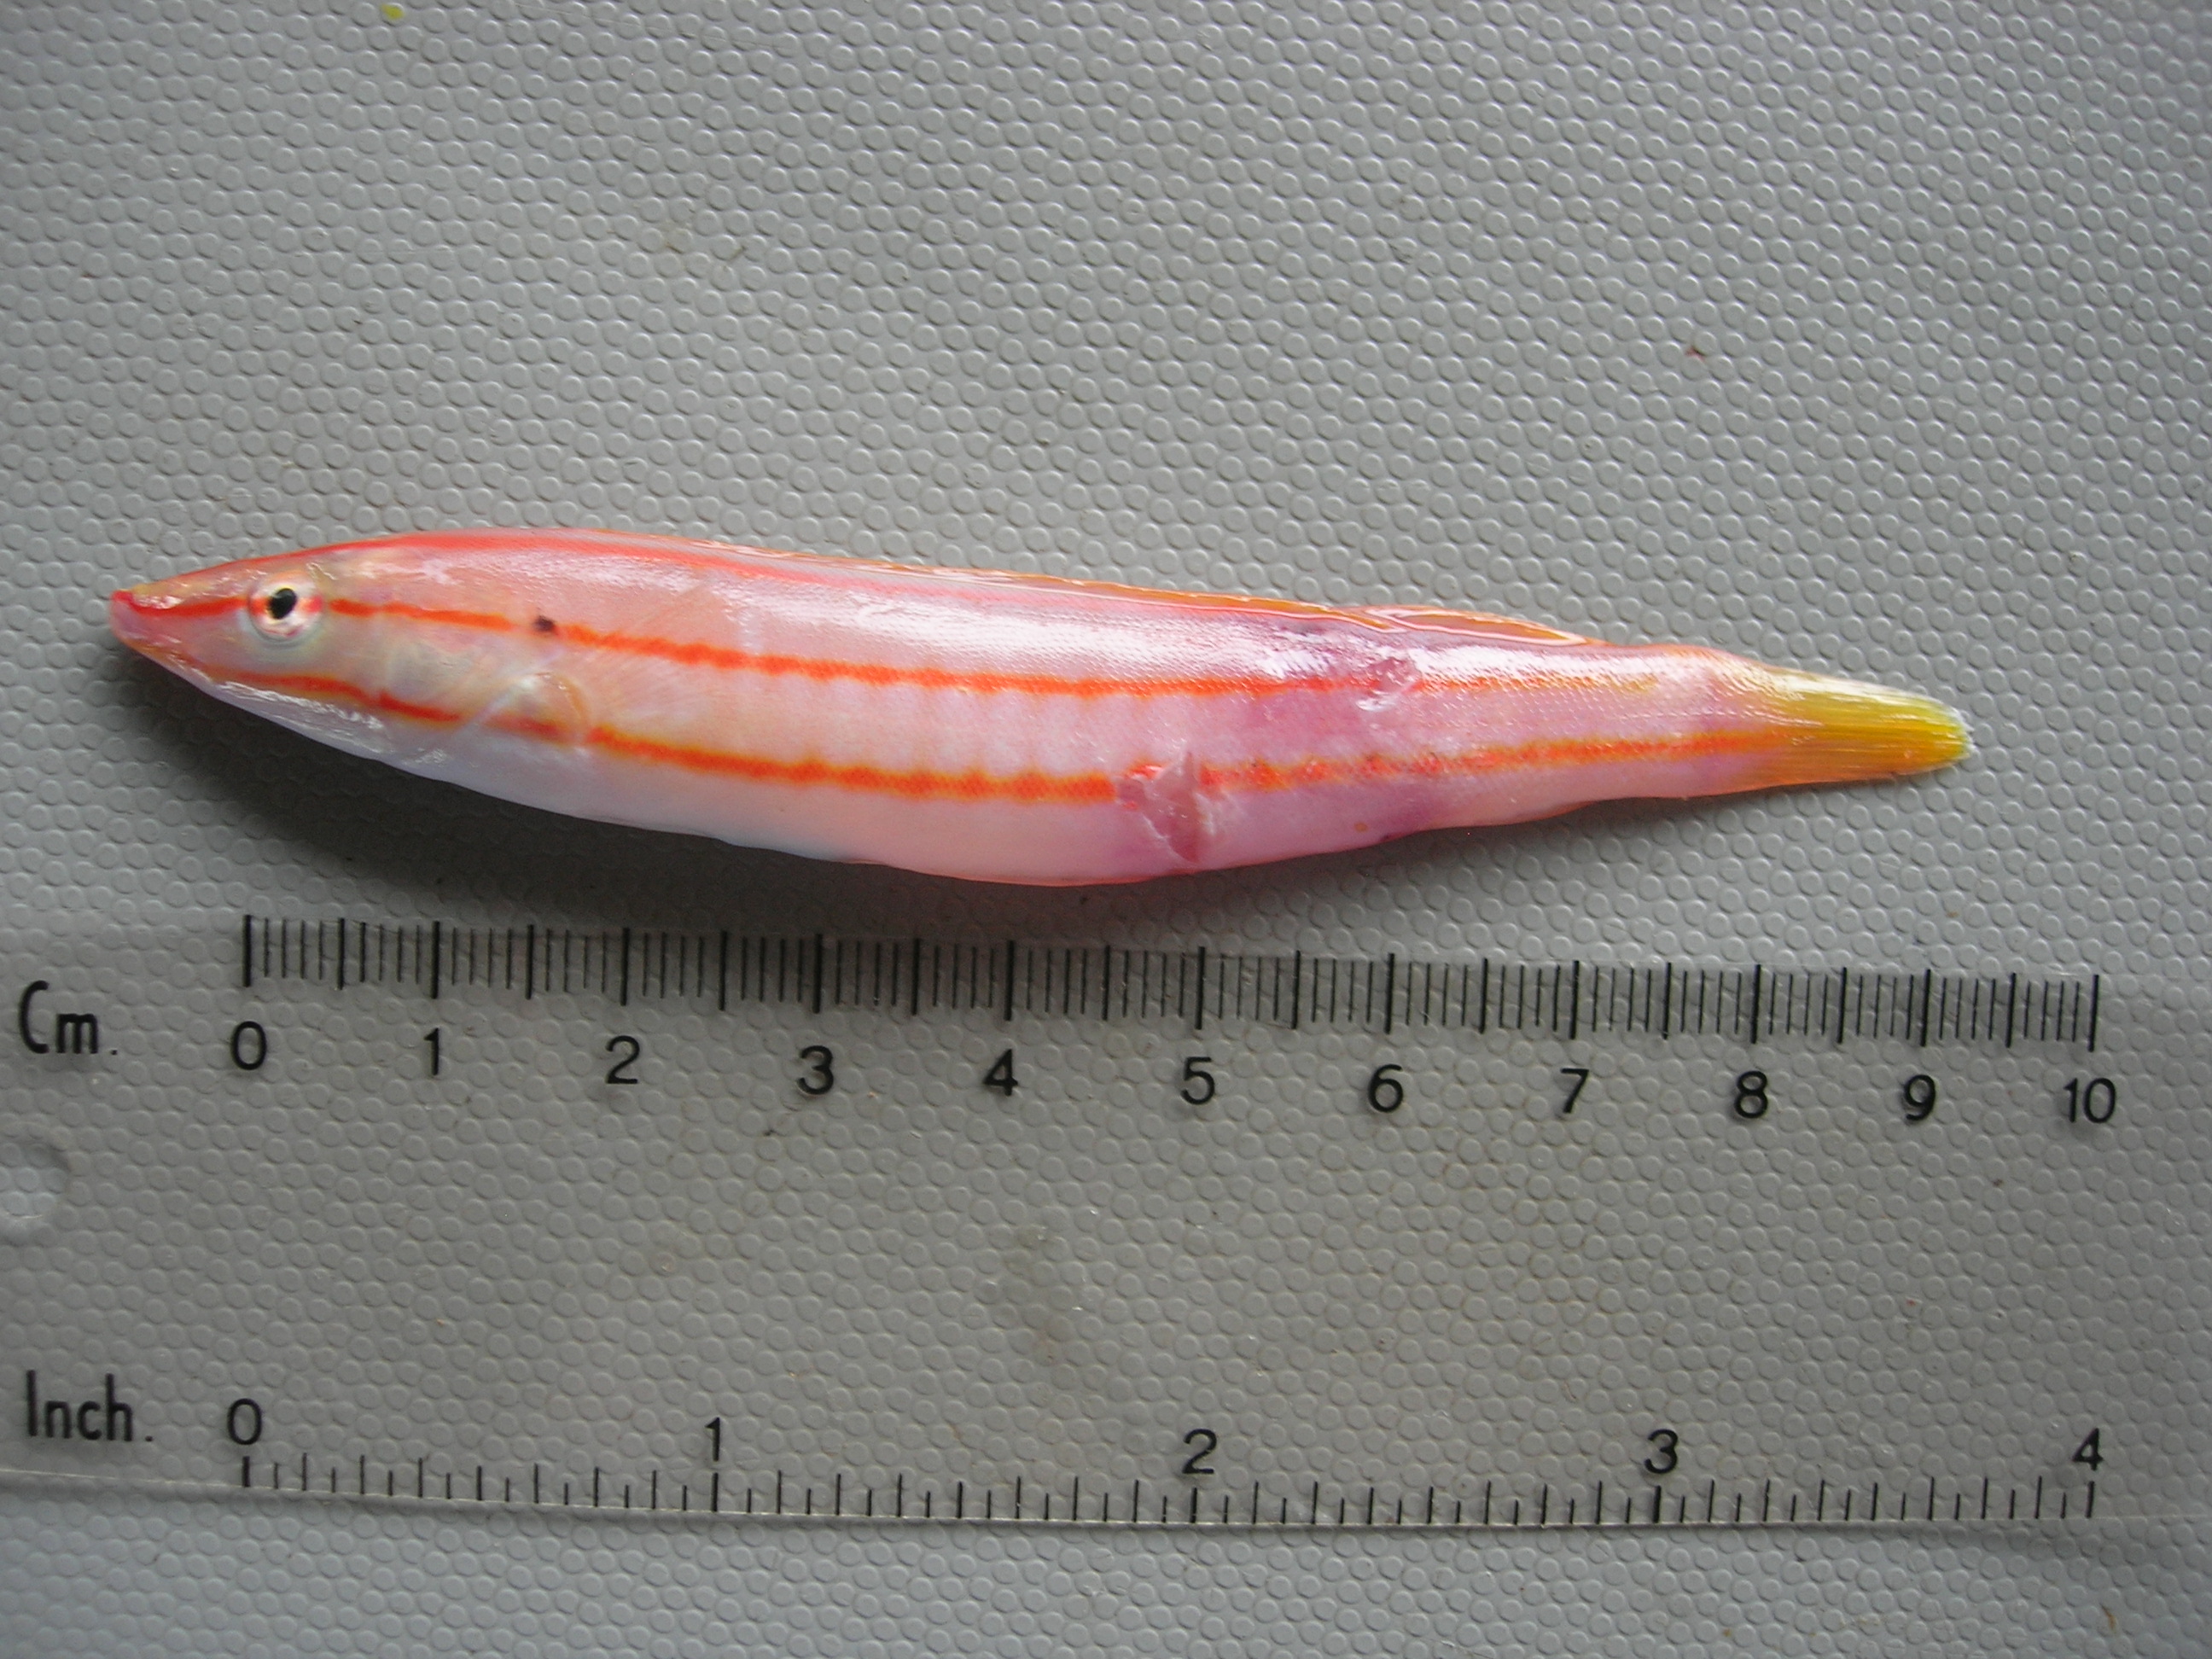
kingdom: Animalia
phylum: Chordata
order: Perciformes
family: Labridae
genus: Hologymnosus
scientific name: Hologymnosus doliatus
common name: Pastel ringwrasse
